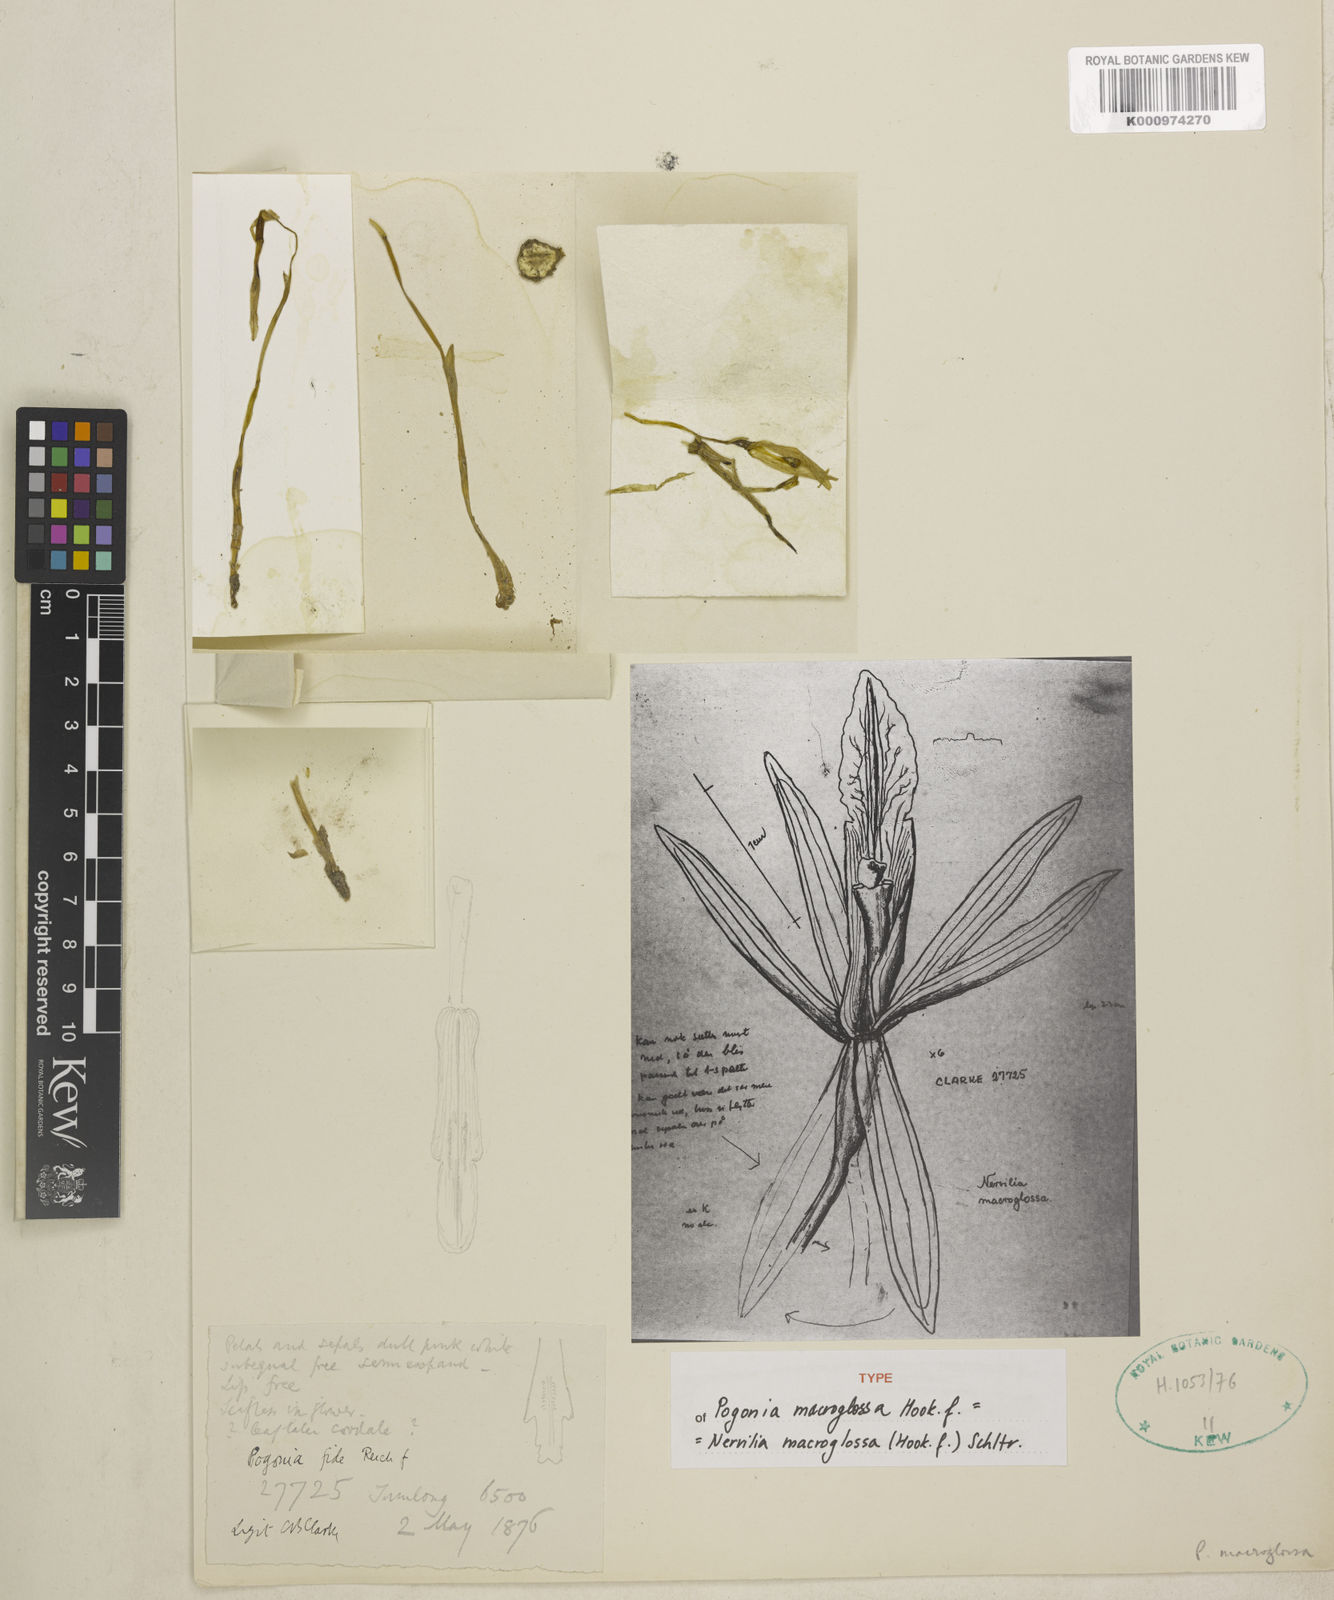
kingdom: Plantae
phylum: Tracheophyta
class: Liliopsida
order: Asparagales
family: Orchidaceae
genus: Nervilia
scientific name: Nervilia macroglossa
